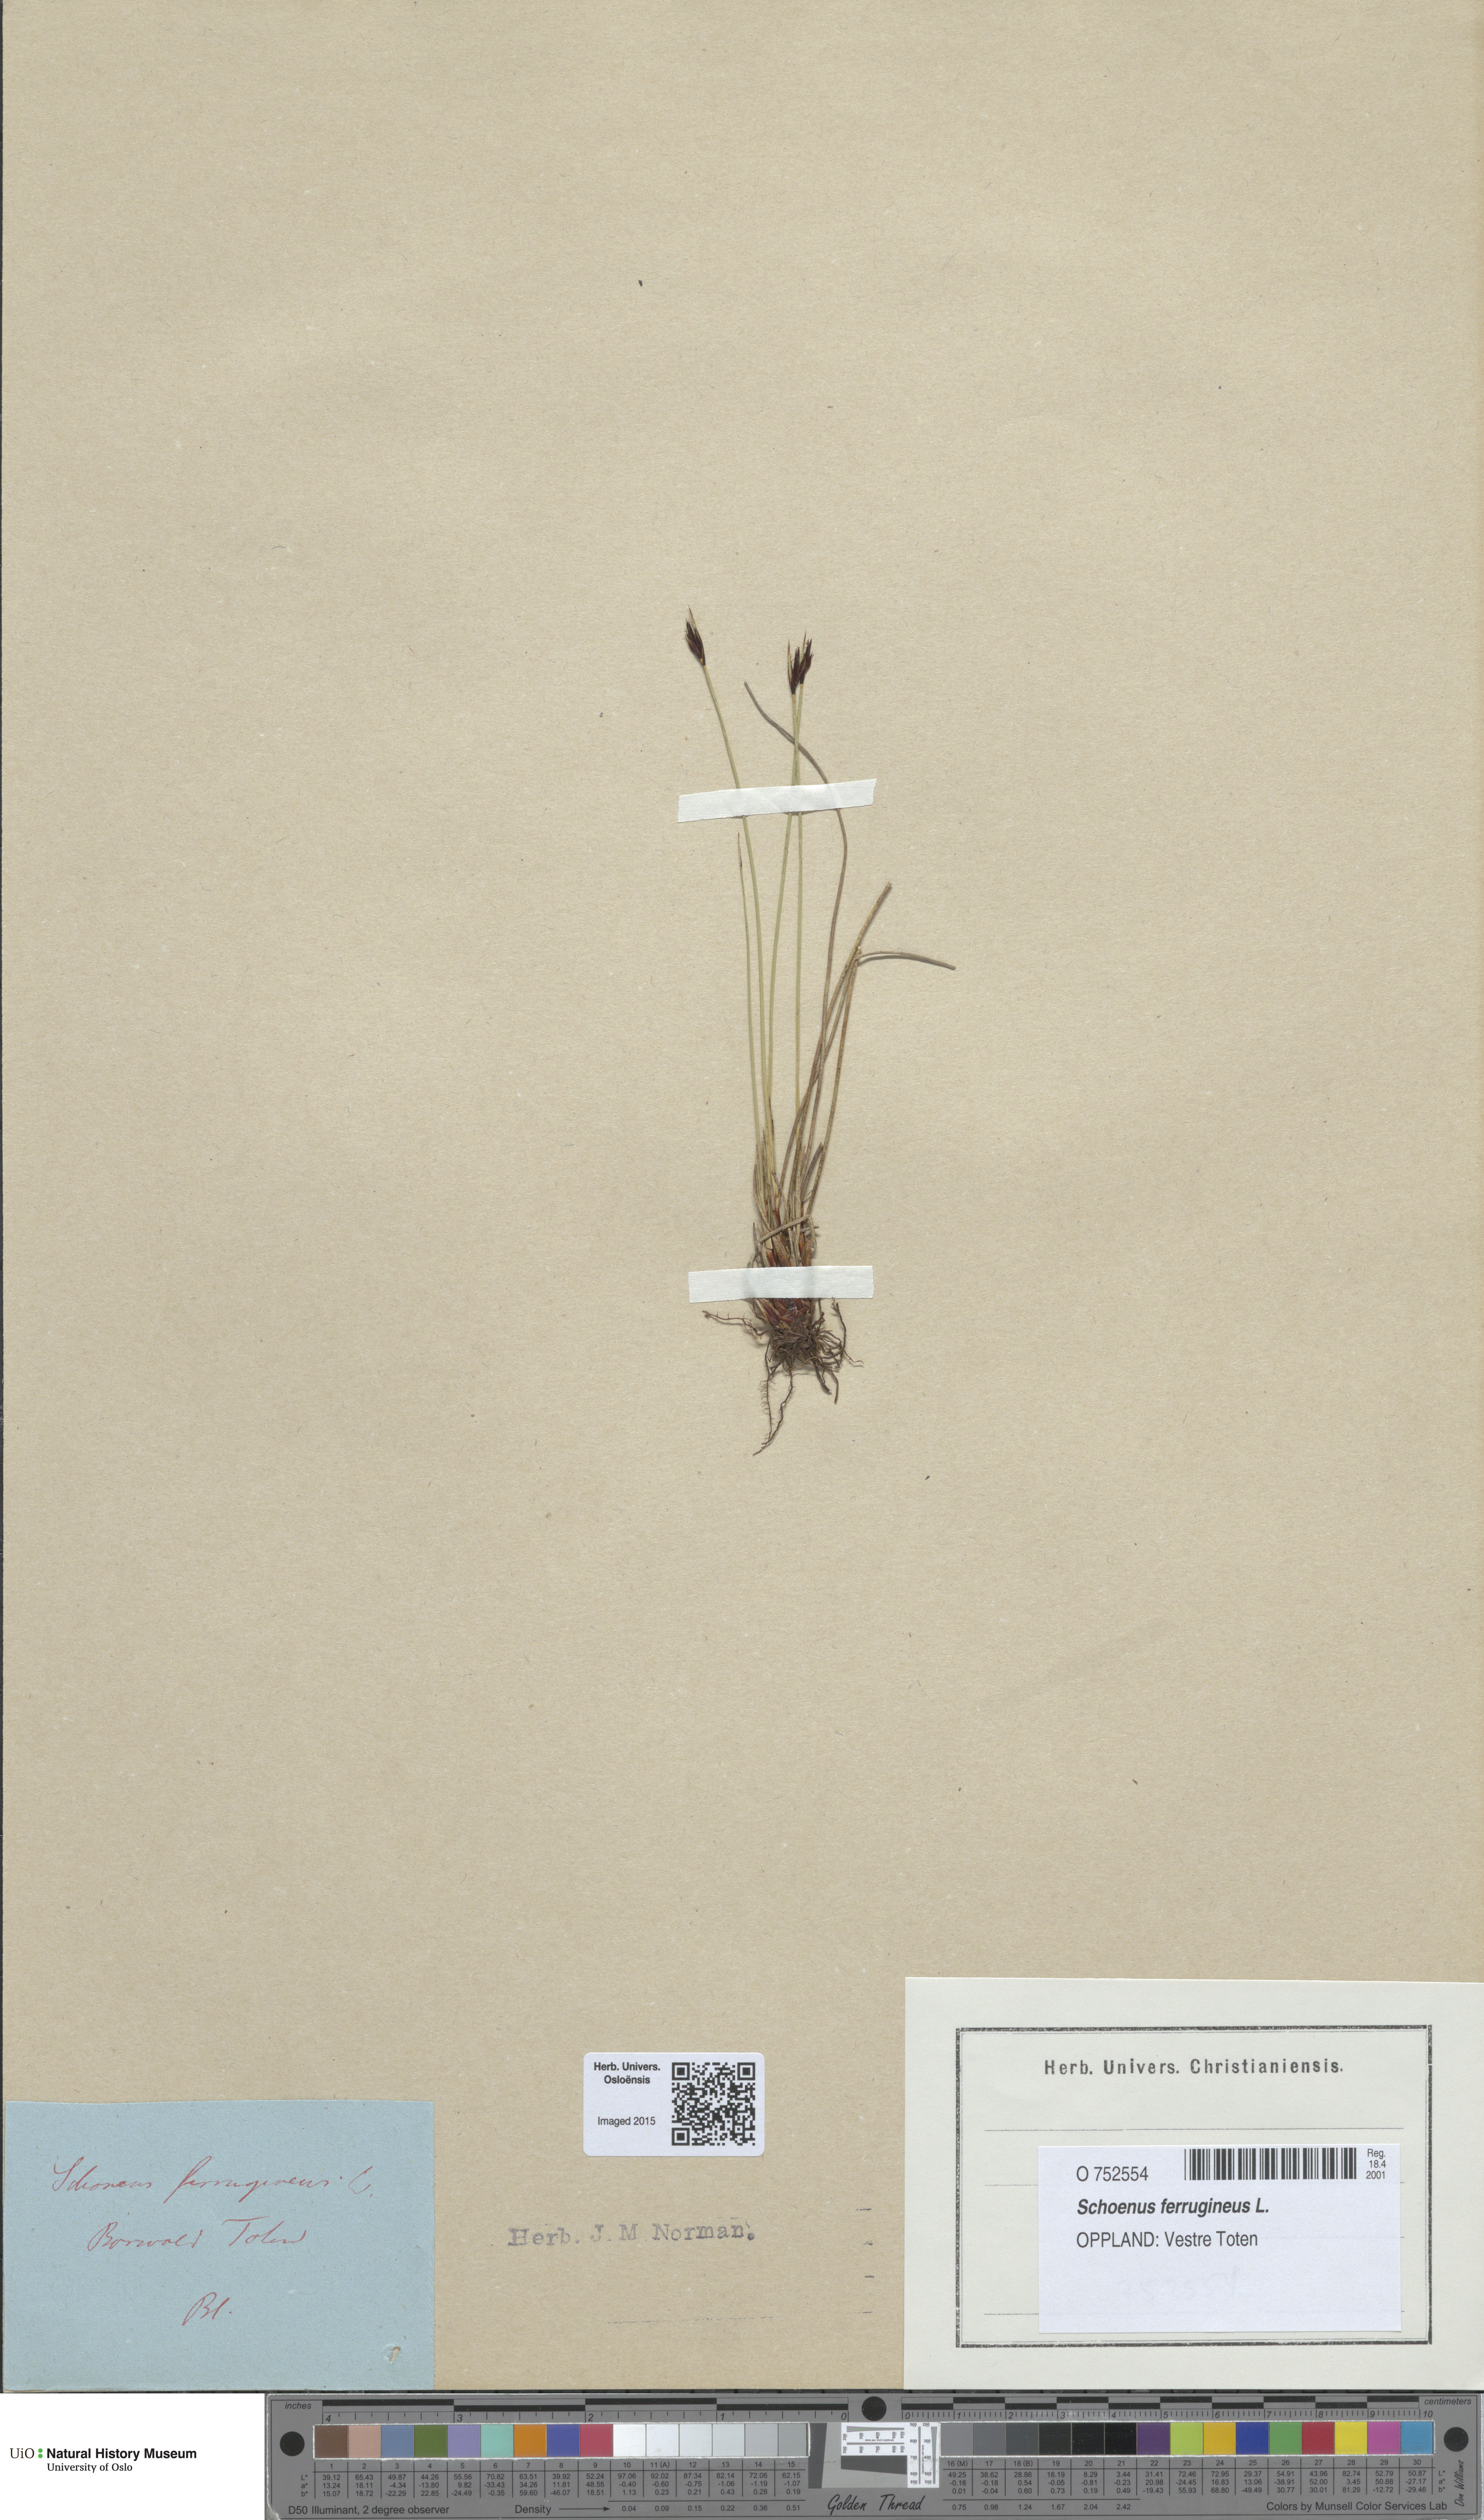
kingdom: Plantae
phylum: Tracheophyta
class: Liliopsida
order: Poales
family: Cyperaceae
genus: Schoenus
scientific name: Schoenus ferrugineus
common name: Brown bog-rush
